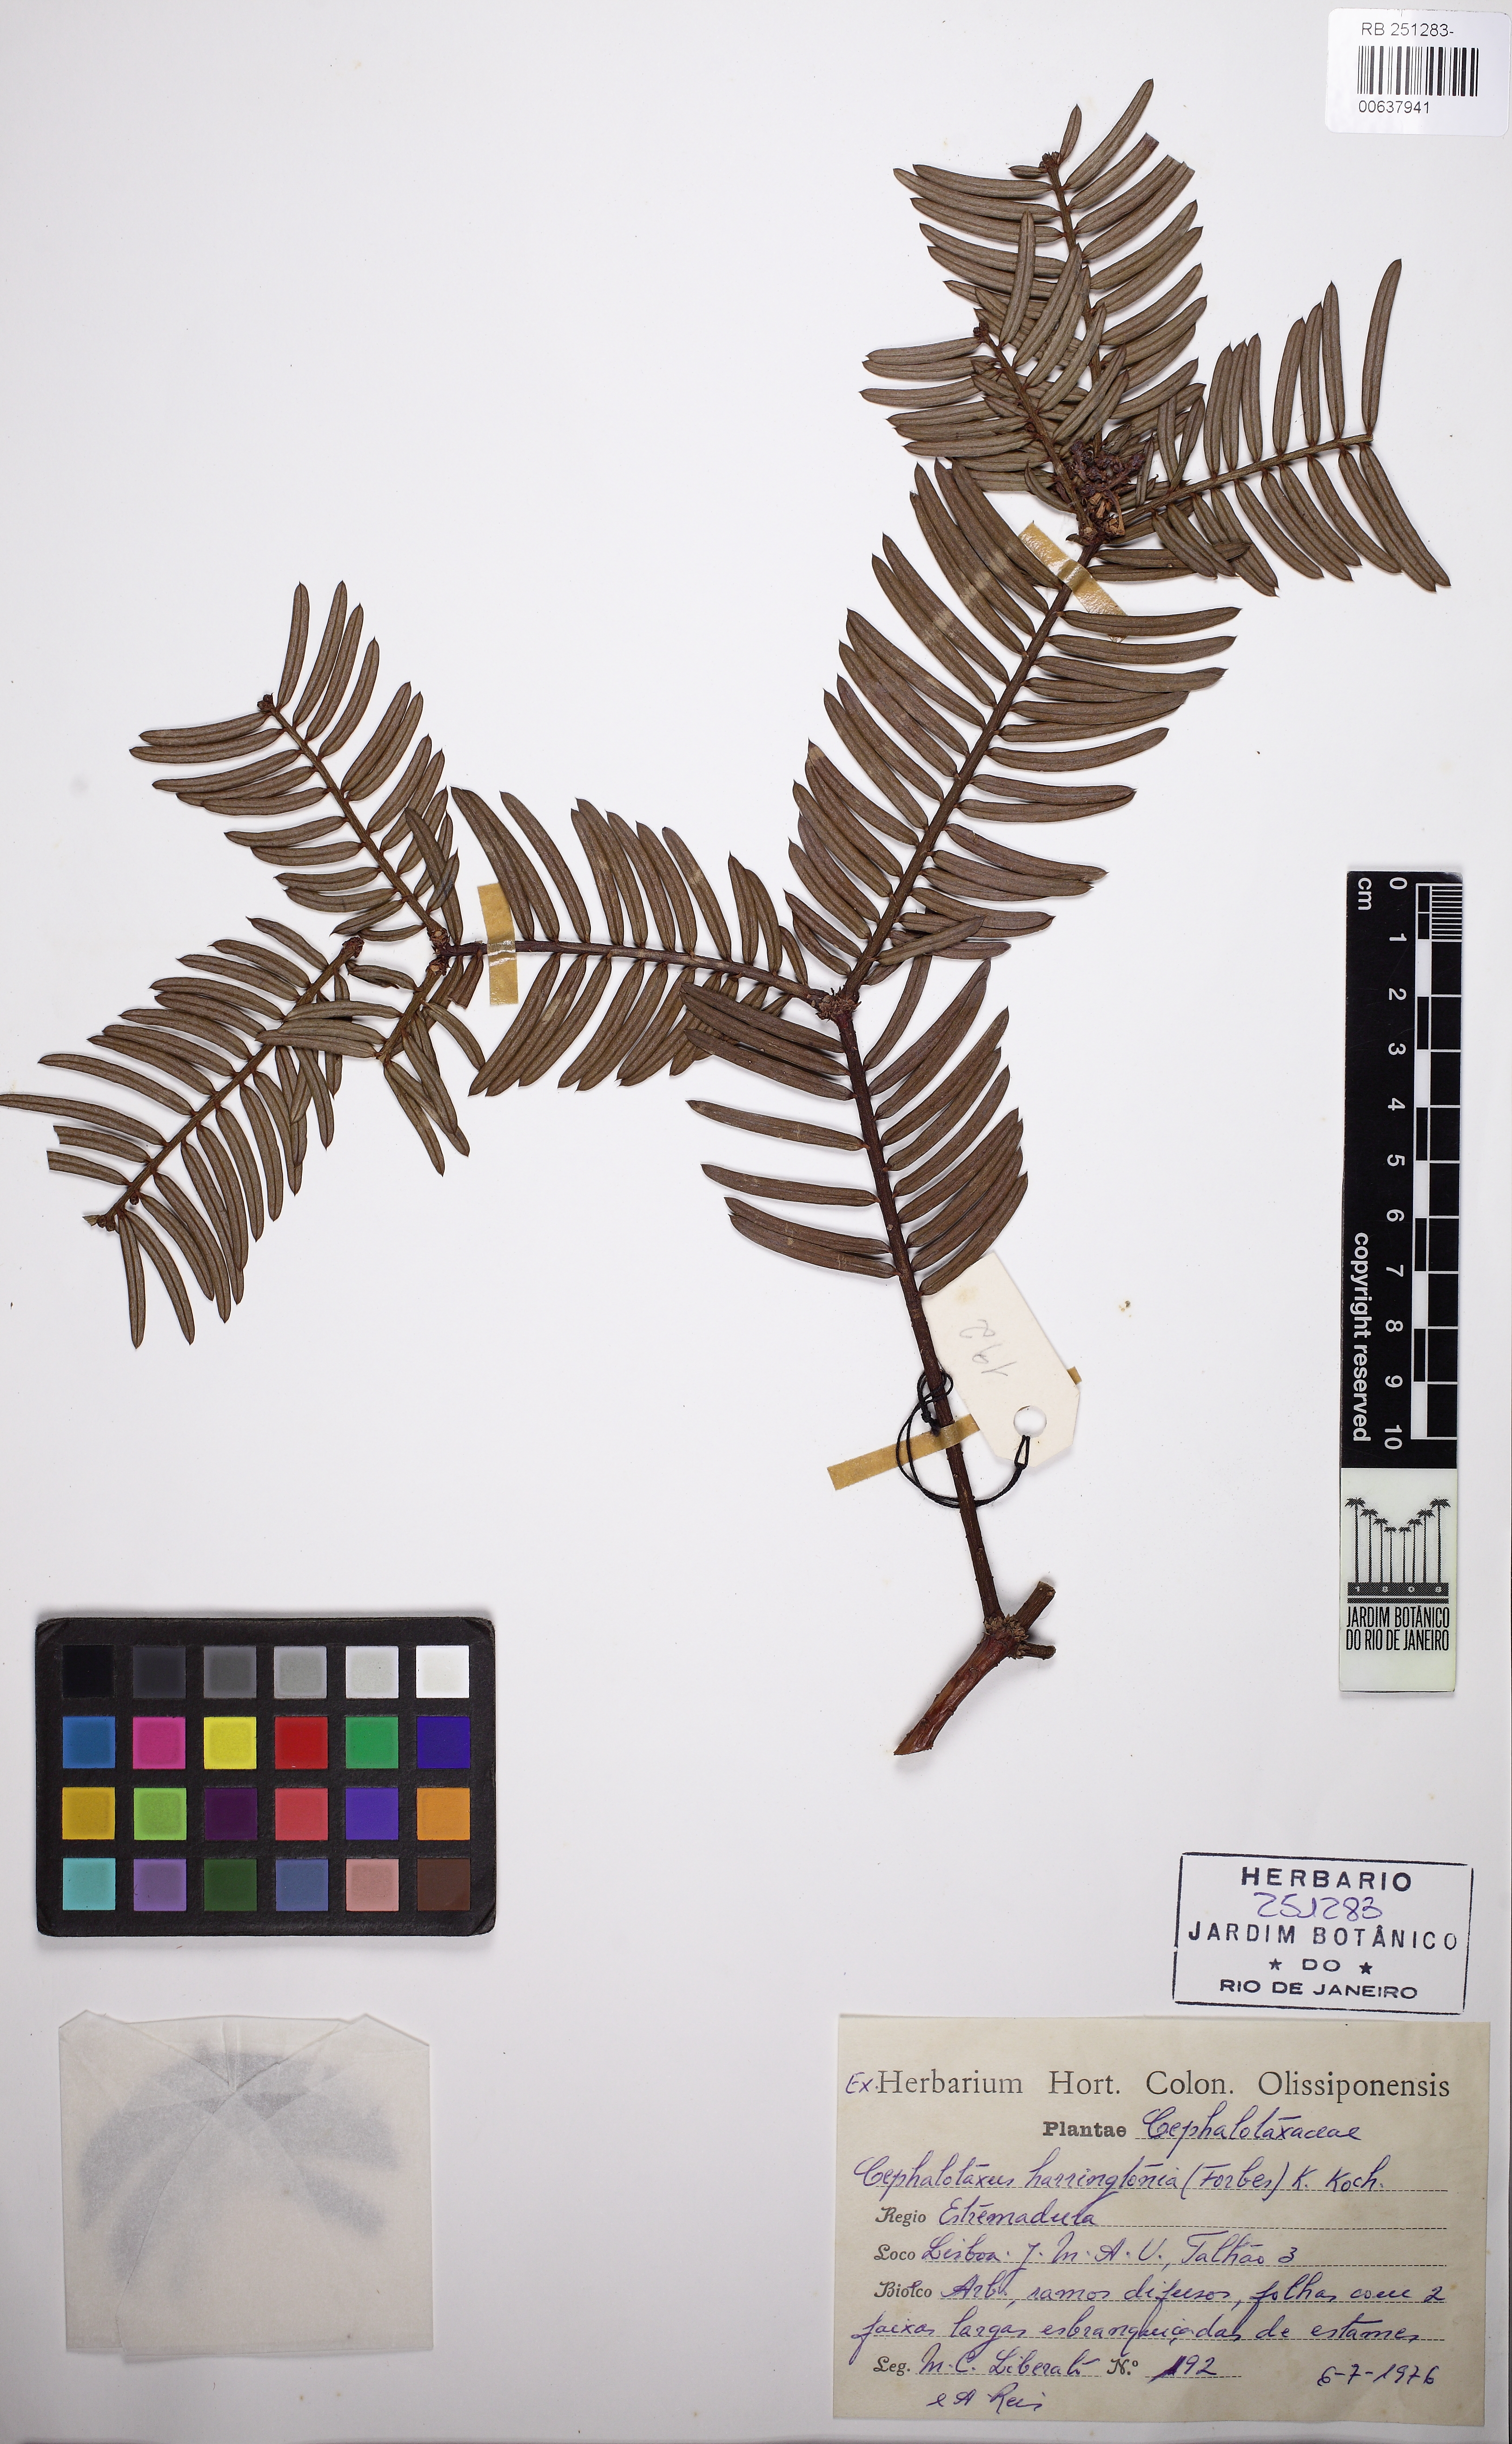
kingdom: Plantae
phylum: Tracheophyta
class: Pinopsida
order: Pinales
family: Cephalotaxaceae
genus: Cephalotaxus
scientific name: Cephalotaxus harringtonia
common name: Japanese plum-yew
